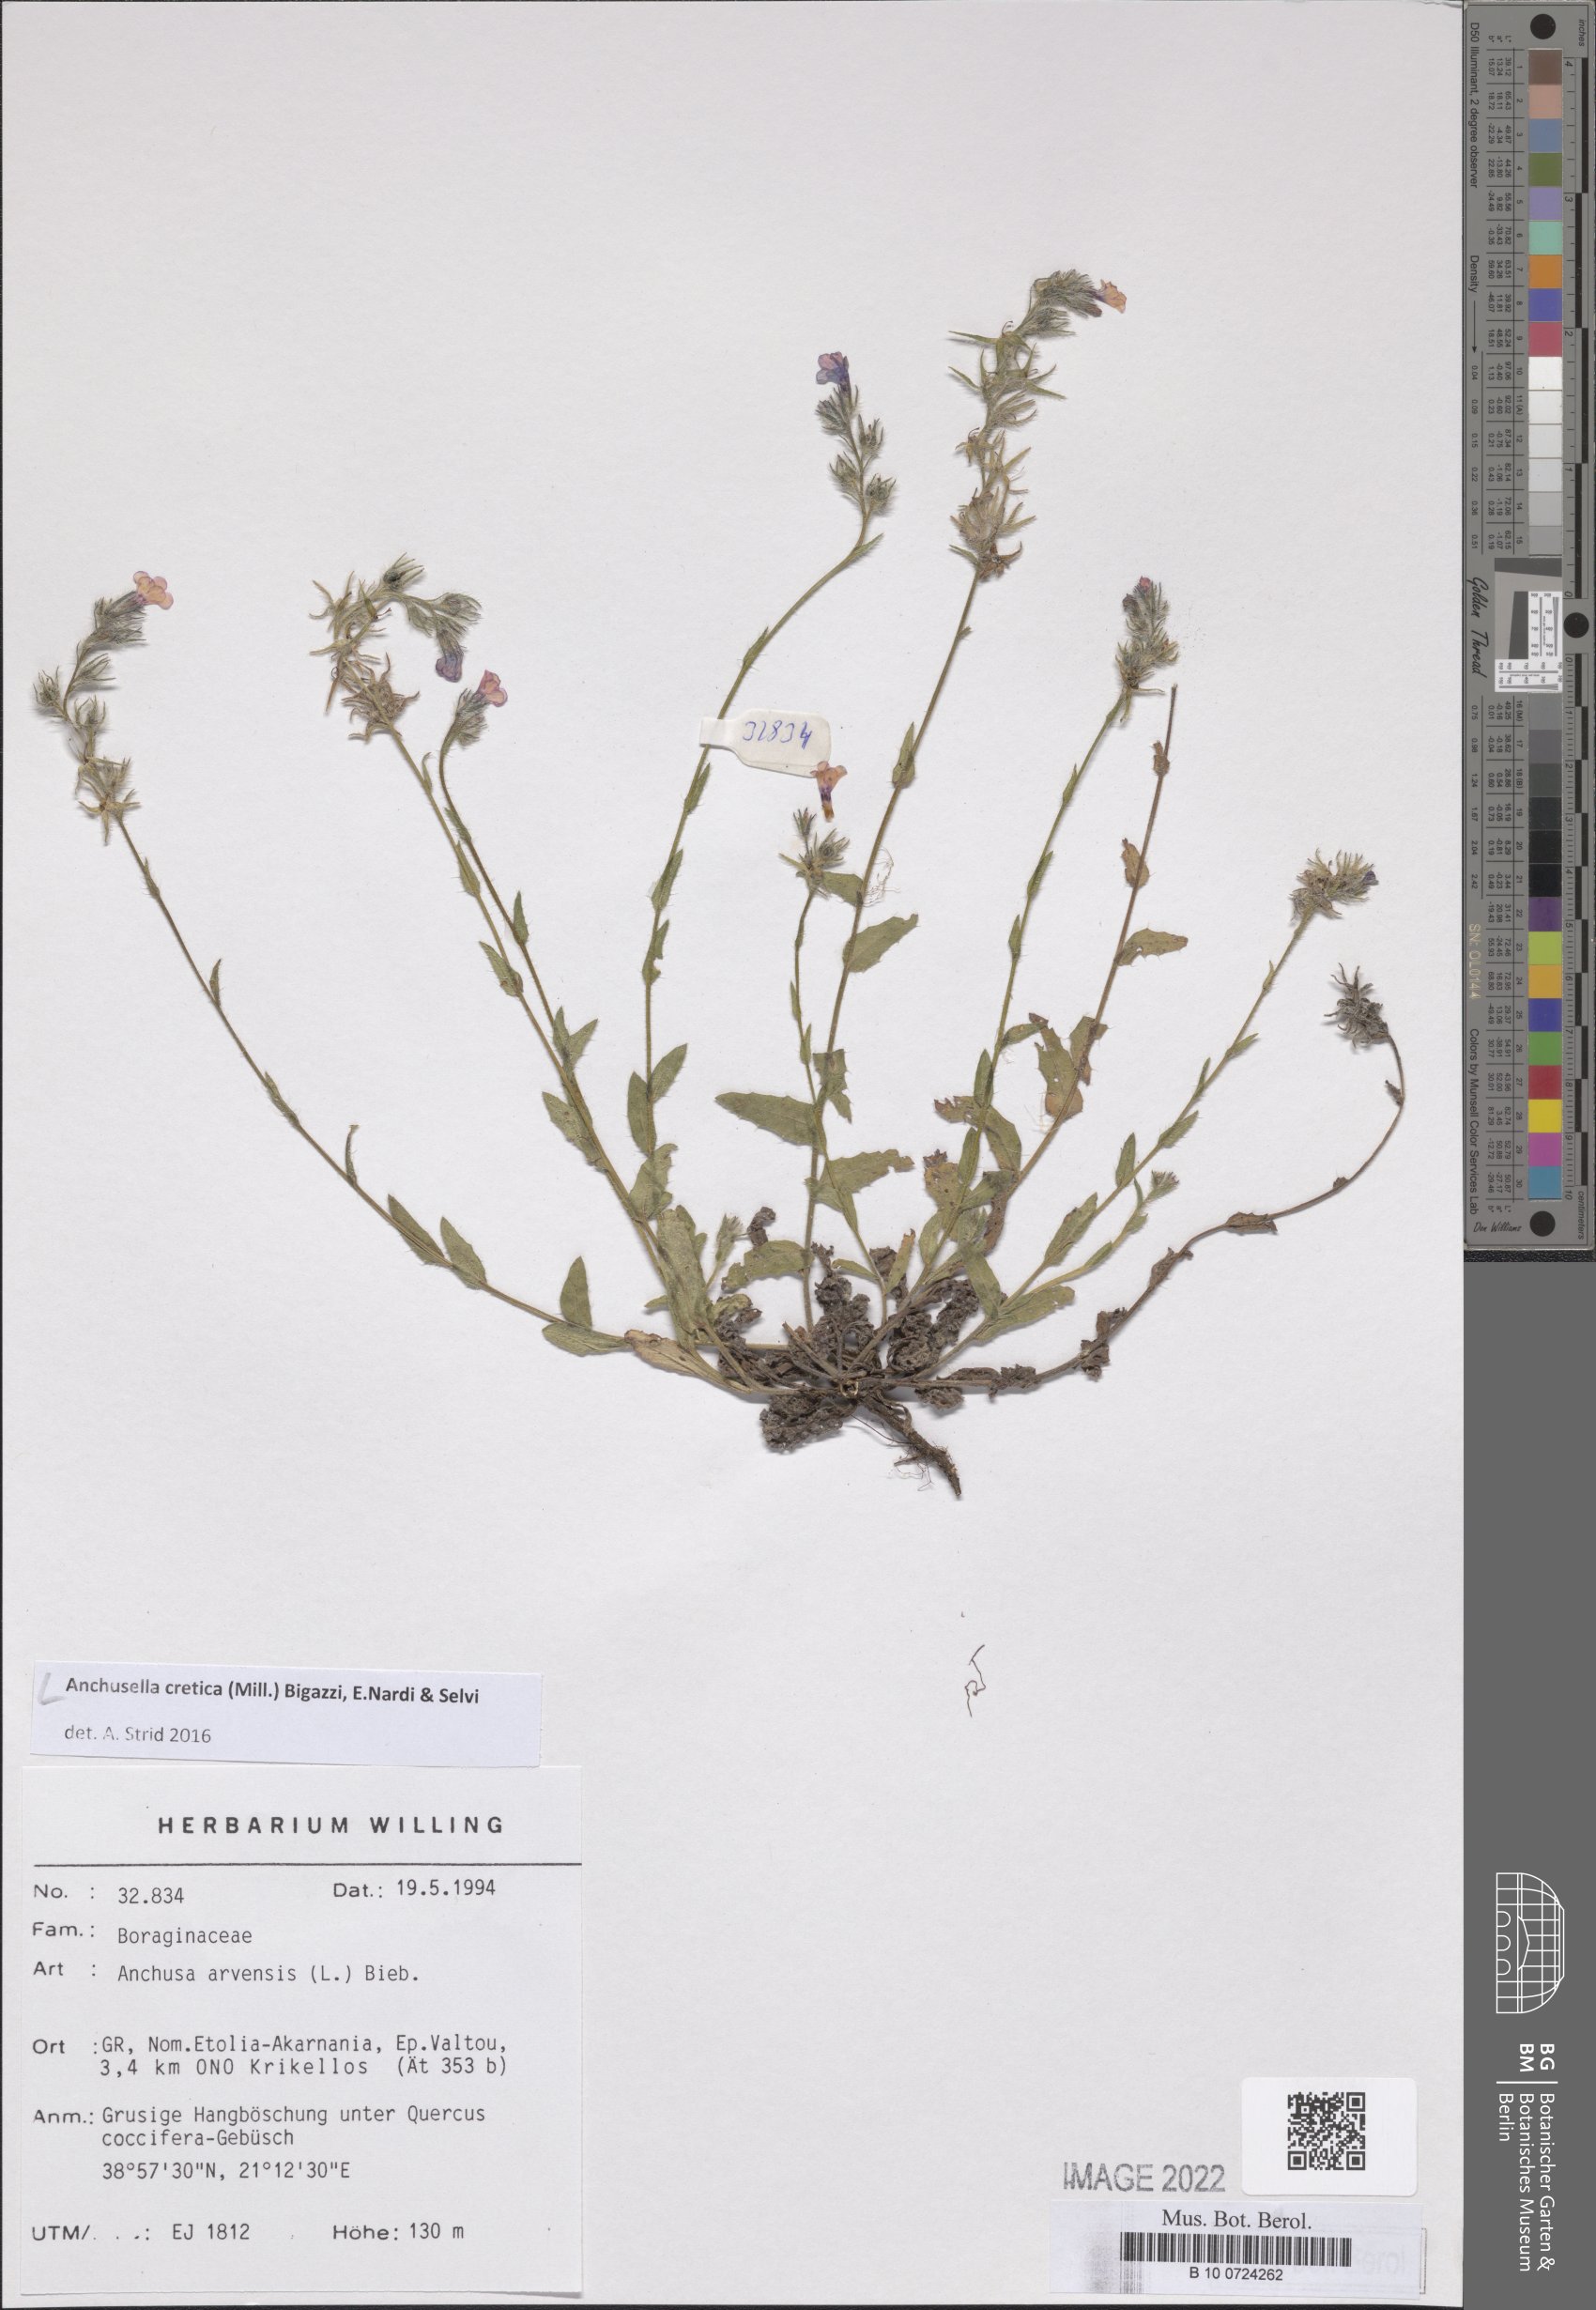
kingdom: Plantae
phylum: Tracheophyta
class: Magnoliopsida
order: Boraginales
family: Boraginaceae
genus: Anchusella
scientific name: Anchusella cretica
